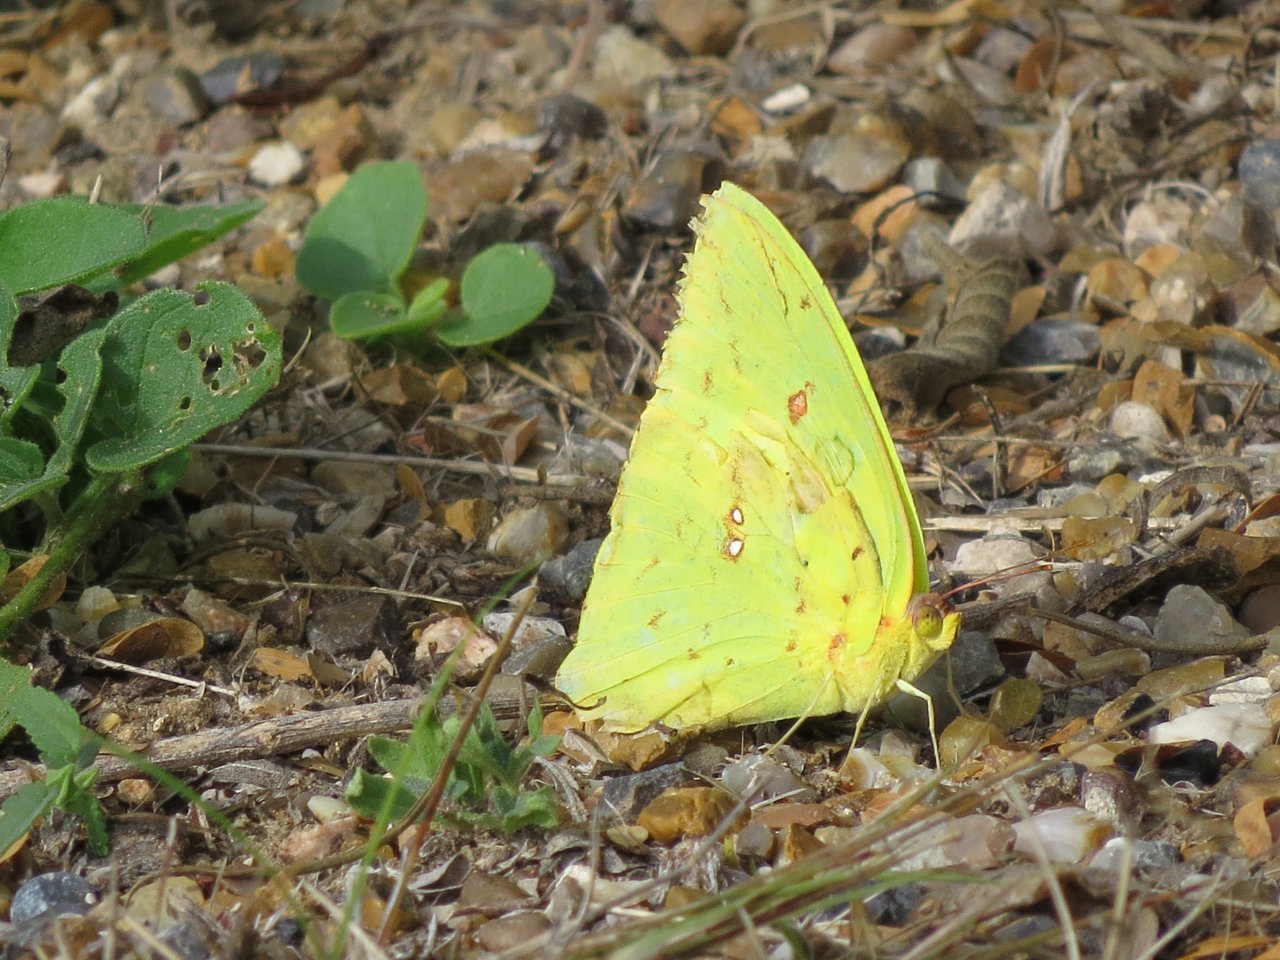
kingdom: Animalia
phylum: Arthropoda
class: Insecta
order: Lepidoptera
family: Pieridae
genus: Phoebis
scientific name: Phoebis sennae
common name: Cloudless Sulphur
